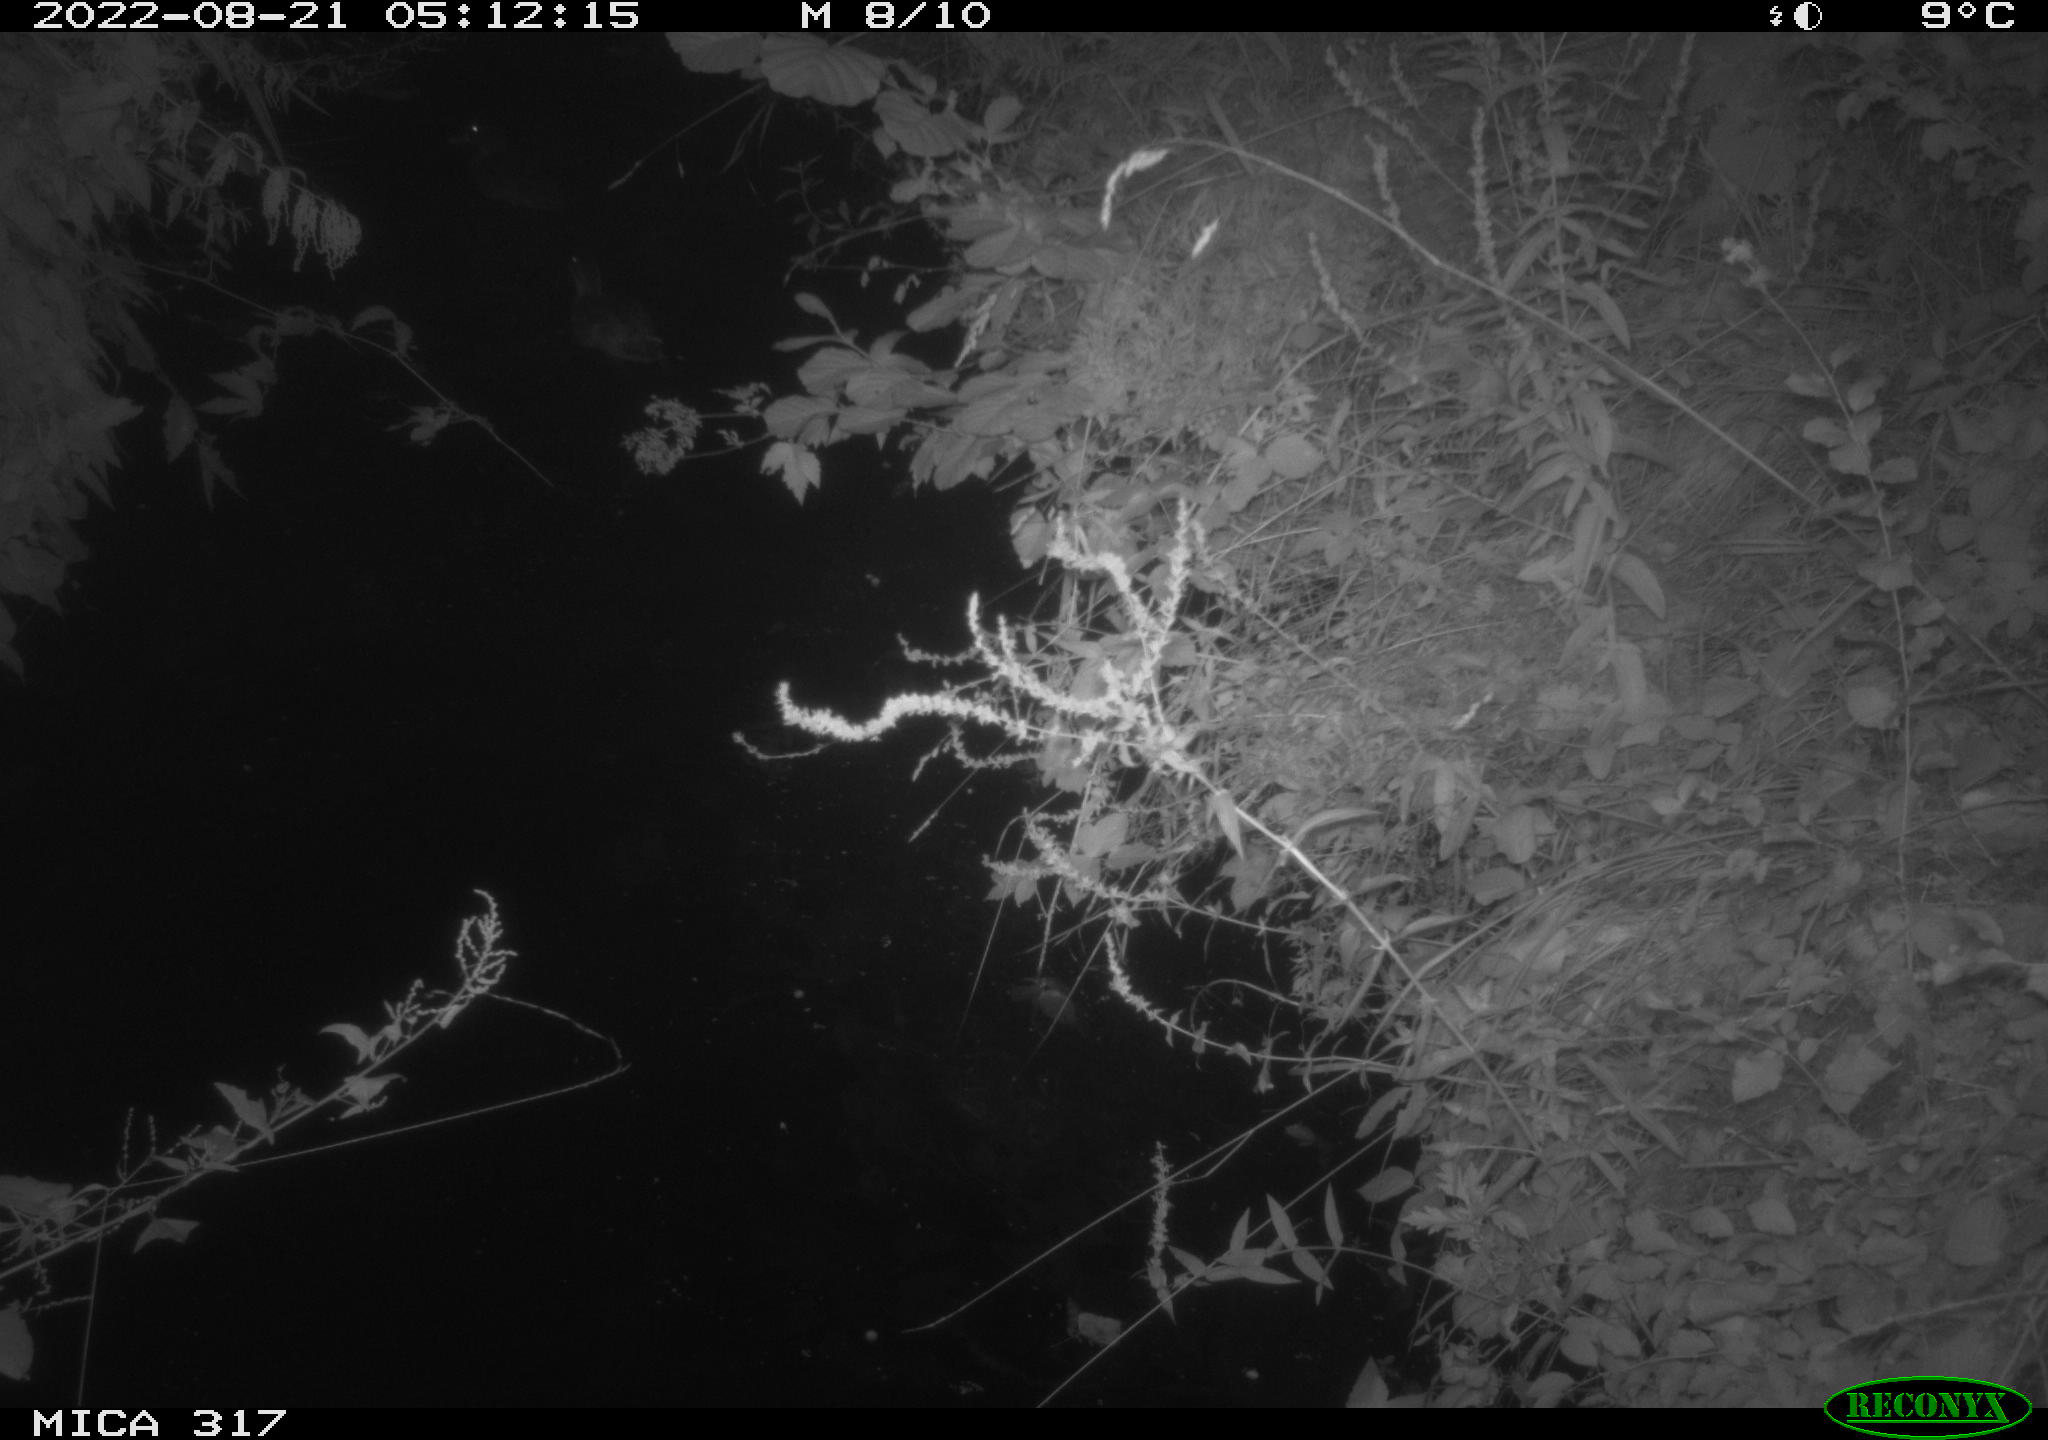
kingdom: Animalia
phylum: Chordata
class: Aves
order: Gruiformes
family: Rallidae
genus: Fulica
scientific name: Fulica atra
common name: Eurasian coot
